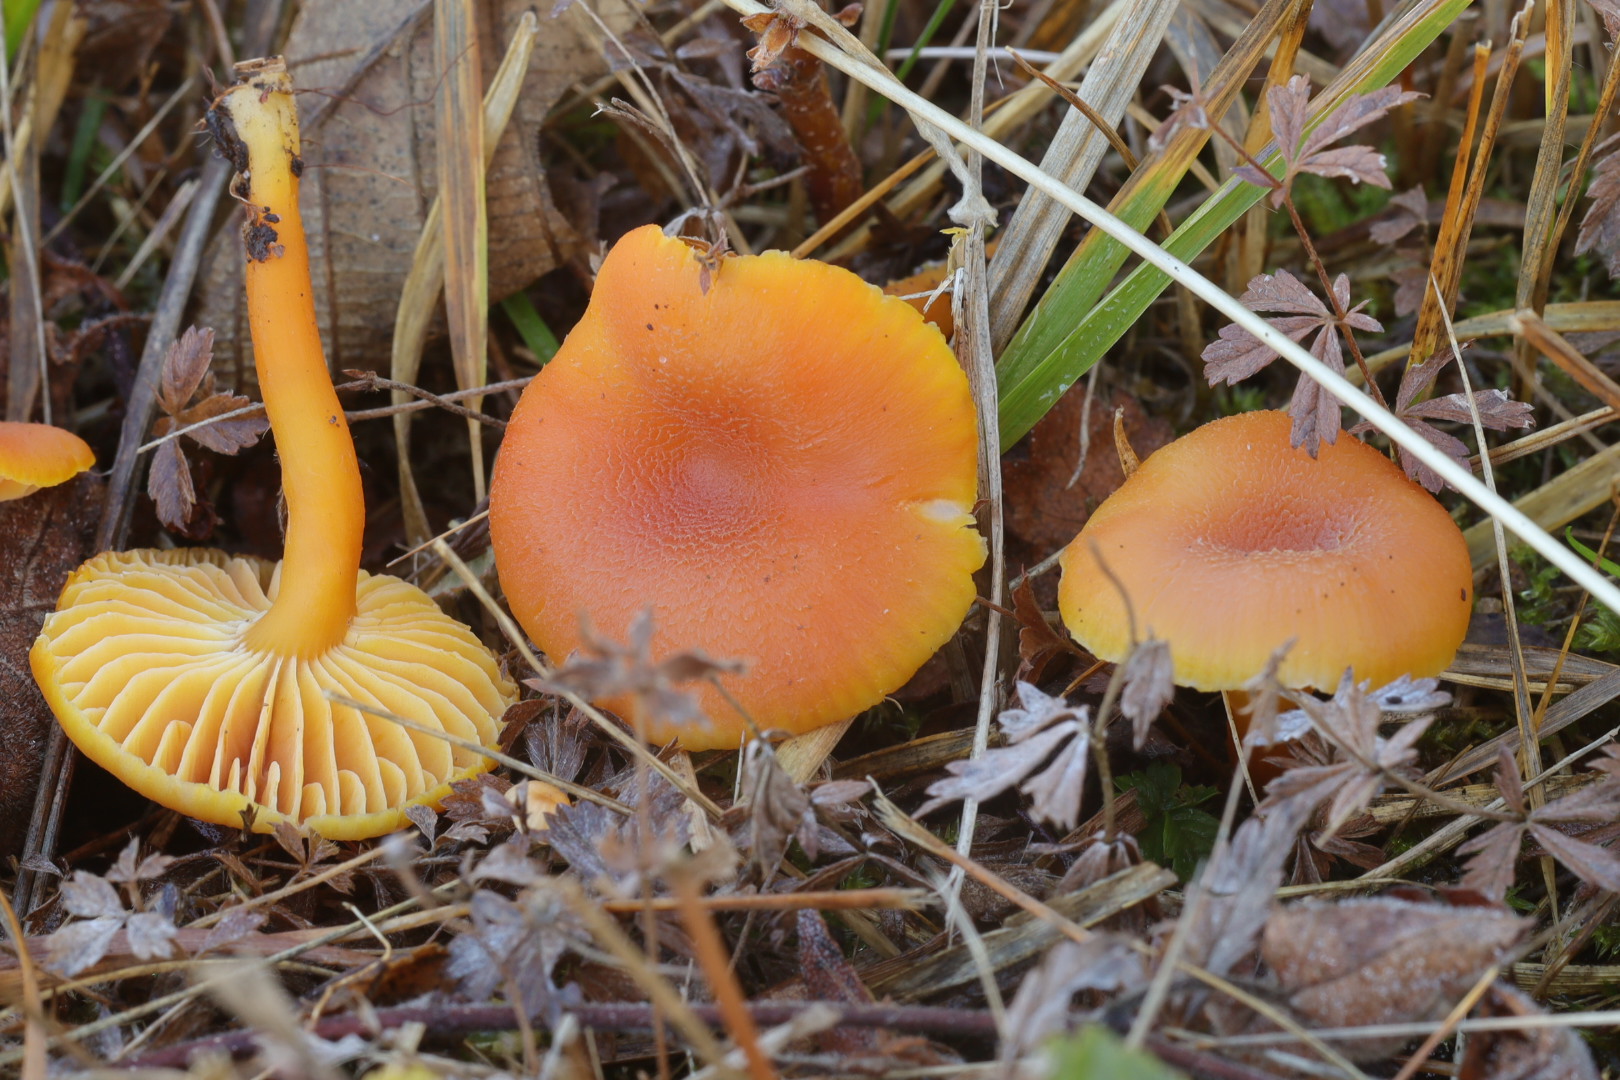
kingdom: Fungi
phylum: Basidiomycota
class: Agaricomycetes
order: Agaricales
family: Hygrophoraceae
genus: Hygrocybe
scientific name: Hygrocybe miniata
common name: mønje-vokshat
